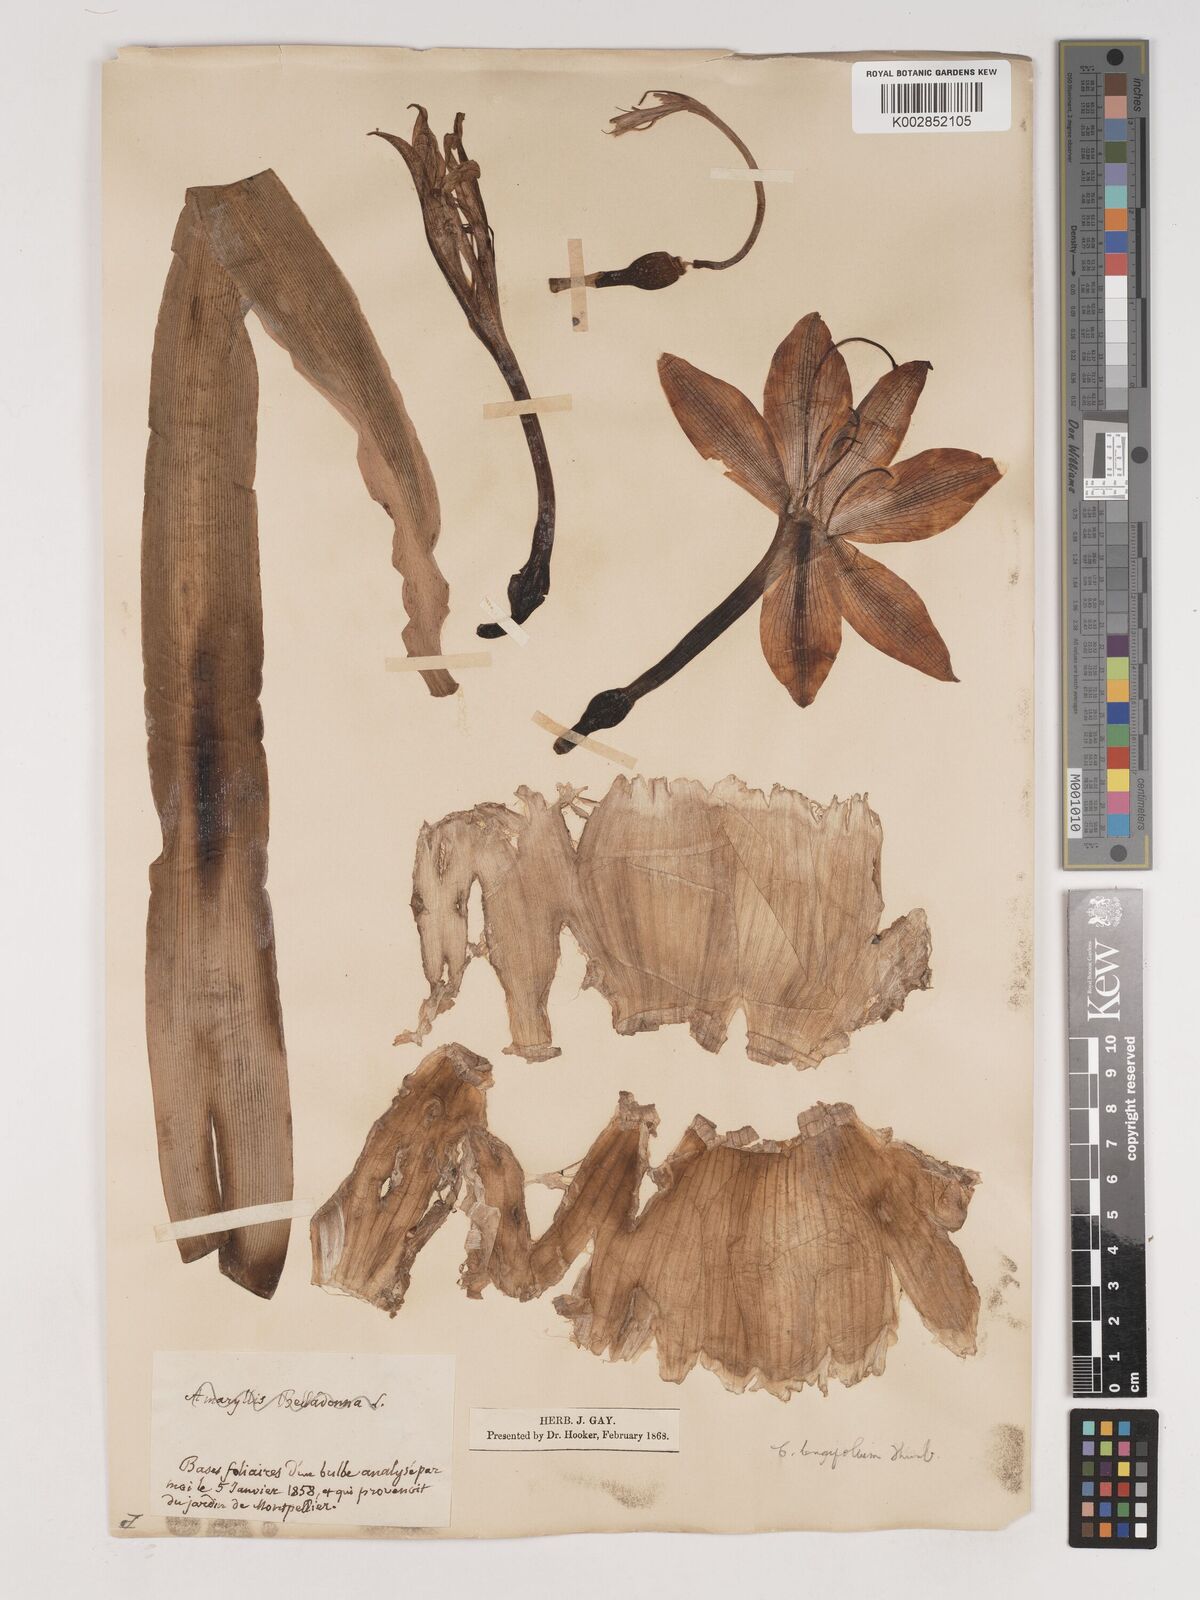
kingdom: Plantae
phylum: Tracheophyta
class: Liliopsida
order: Asparagales
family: Amaryllidaceae
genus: Crinum
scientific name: Crinum bulbispermum
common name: Hardy swamplily
